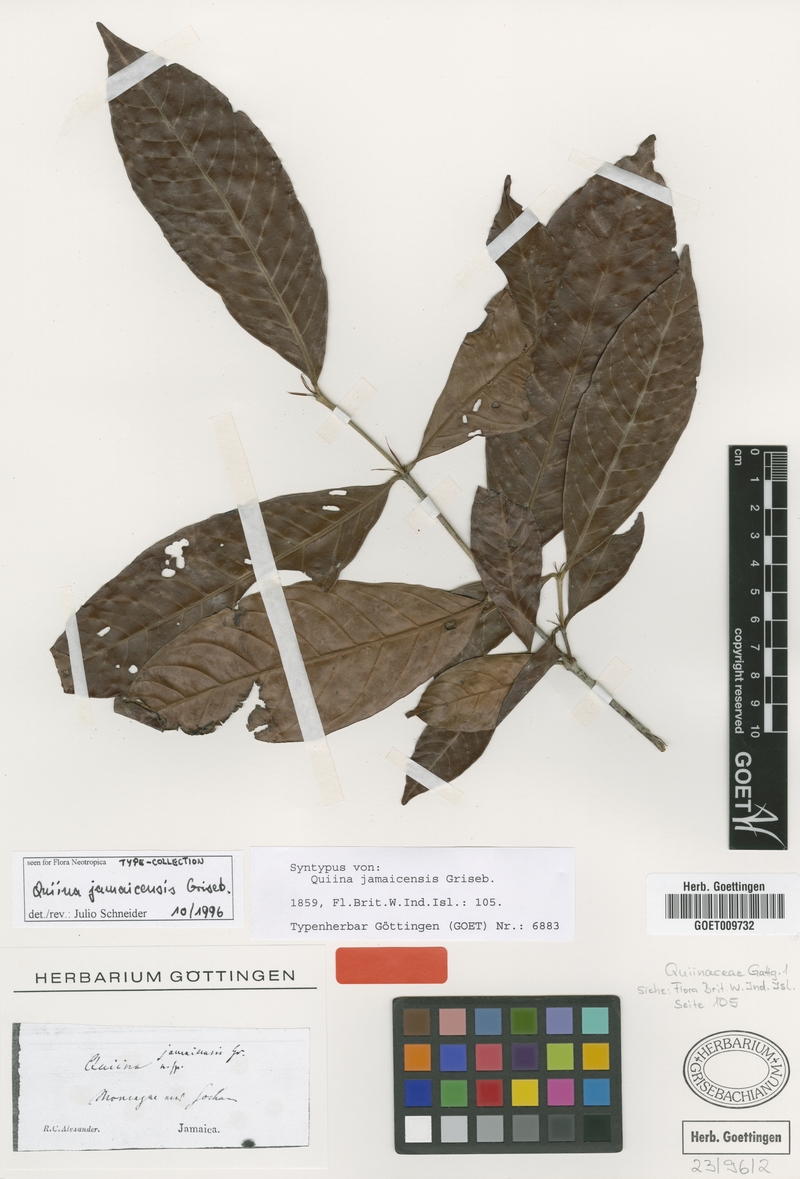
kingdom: Plantae
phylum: Tracheophyta
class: Magnoliopsida
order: Malpighiales
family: Quiinaceae
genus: Quiina
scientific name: Quiina jamaicensis
